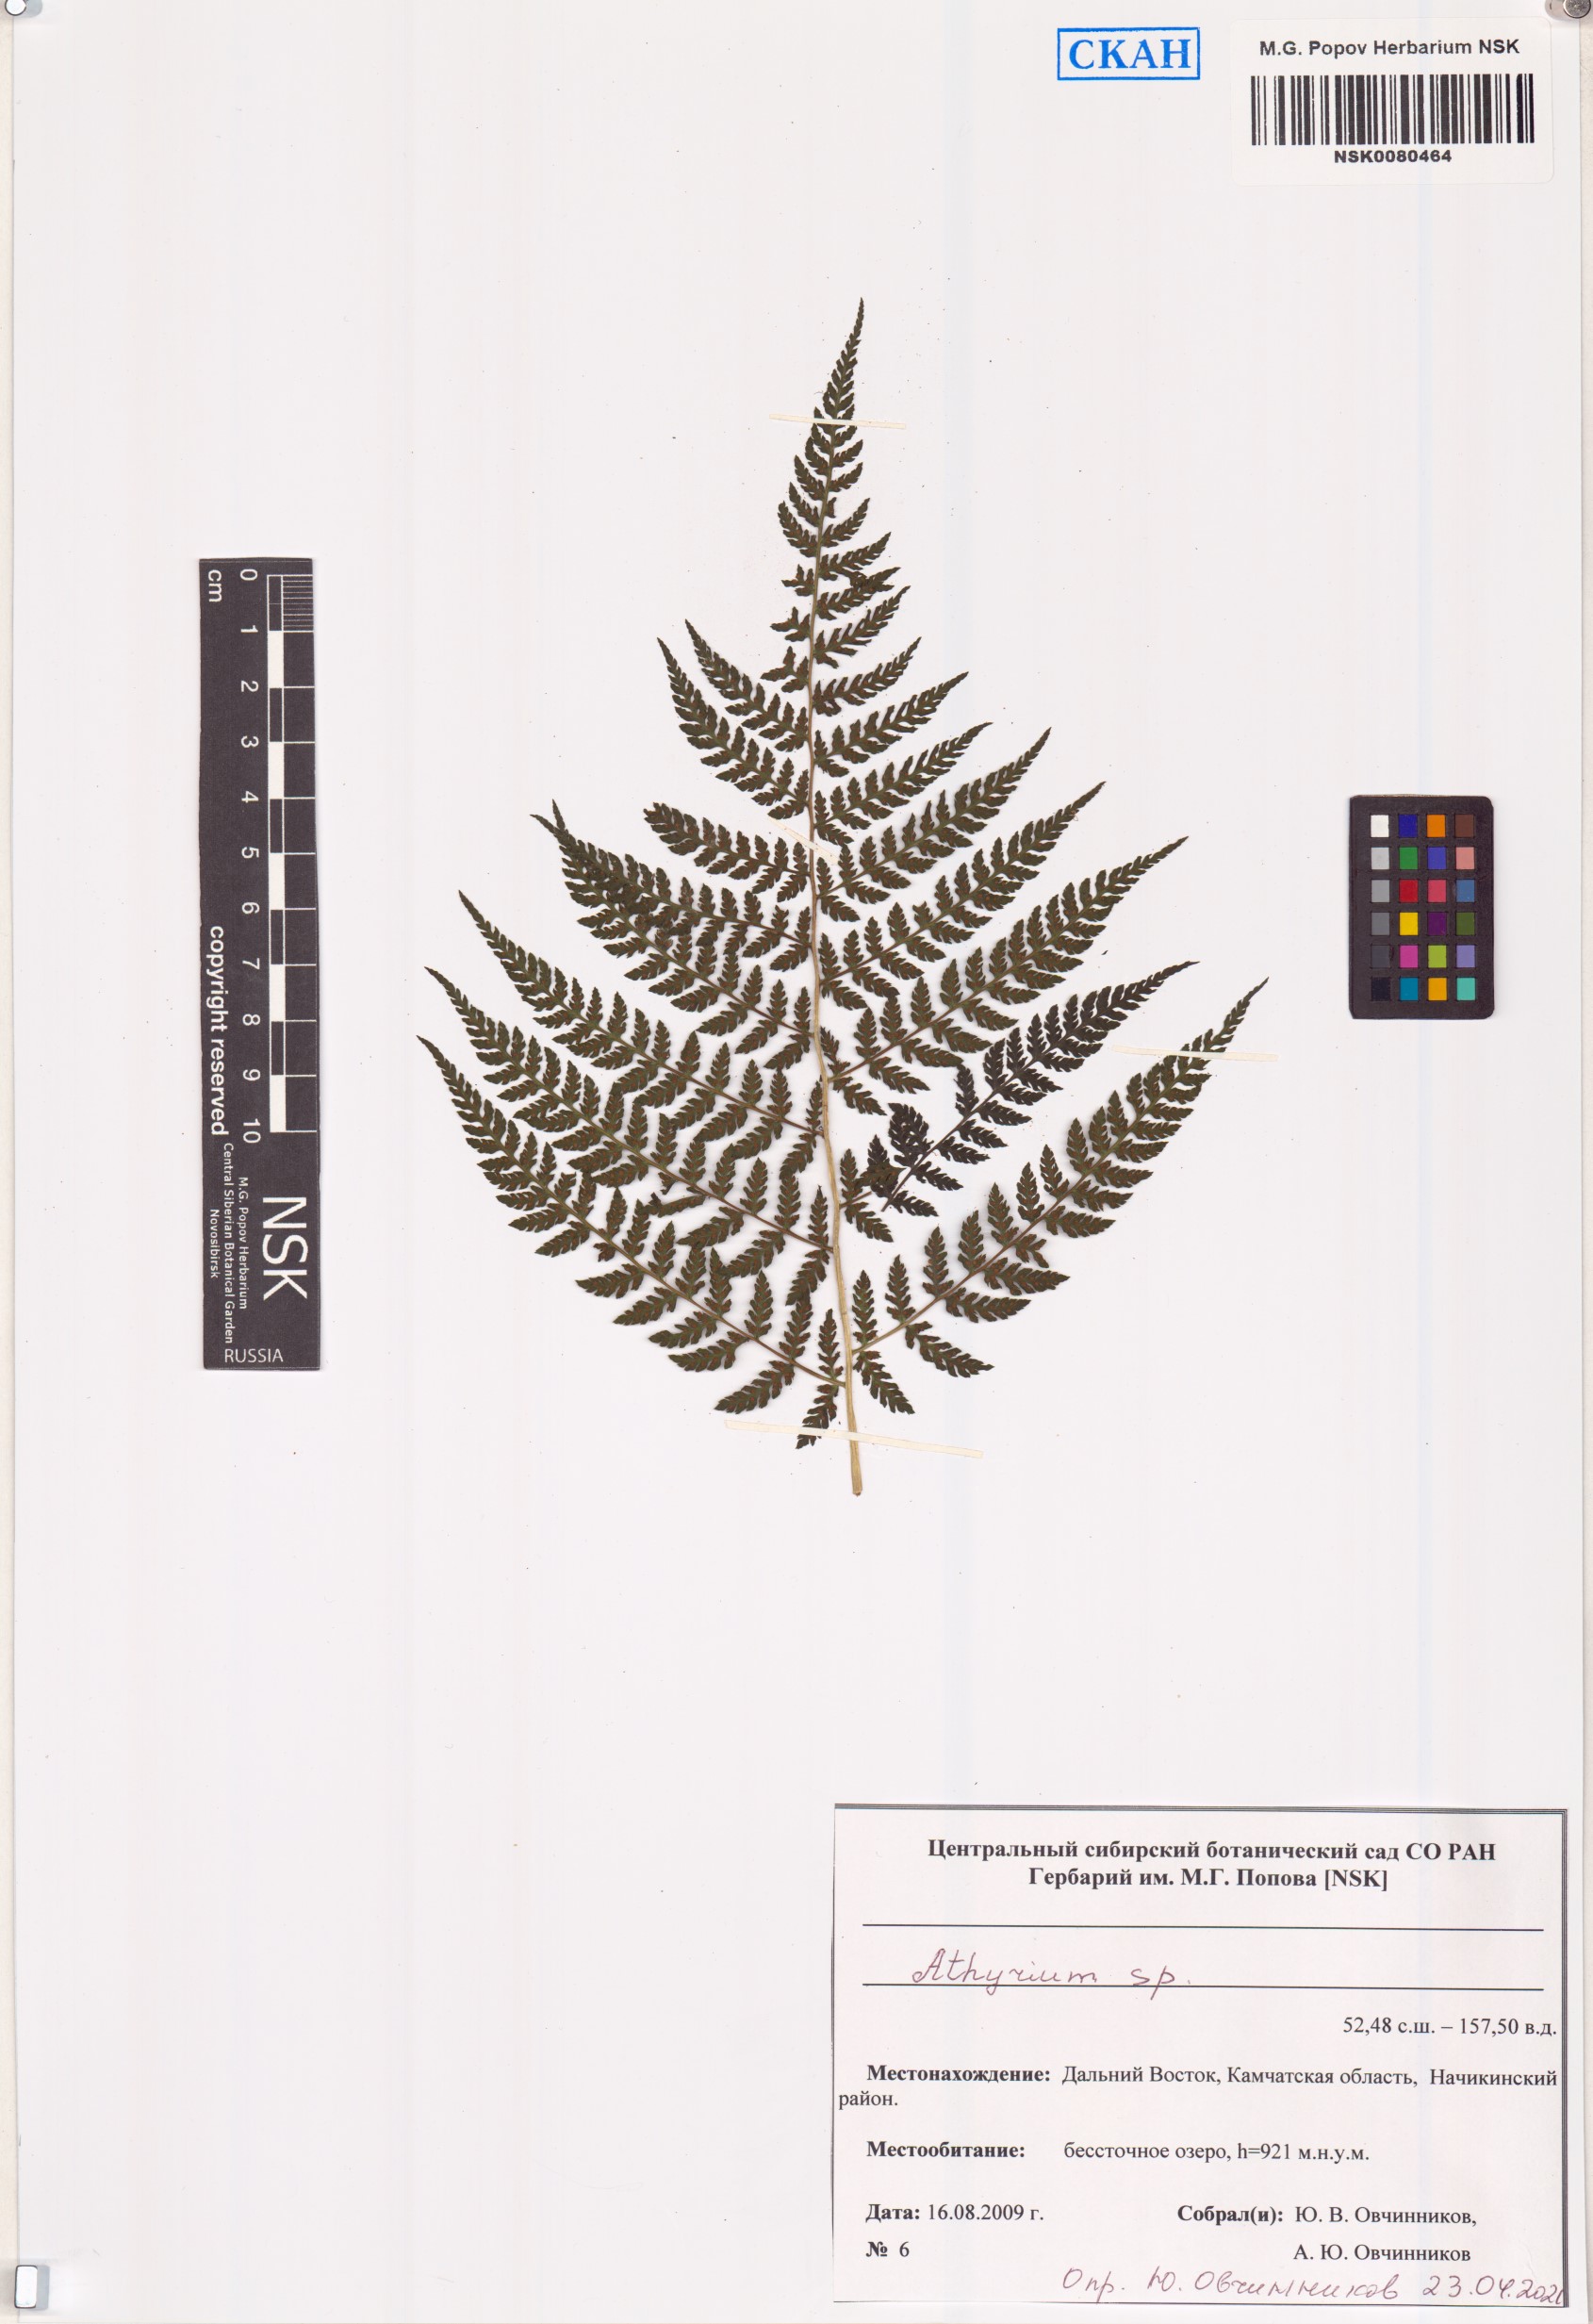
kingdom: Plantae
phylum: Tracheophyta
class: Polypodiopsida
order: Polypodiales
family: Athyriaceae
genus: Athyrium
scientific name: Athyrium
